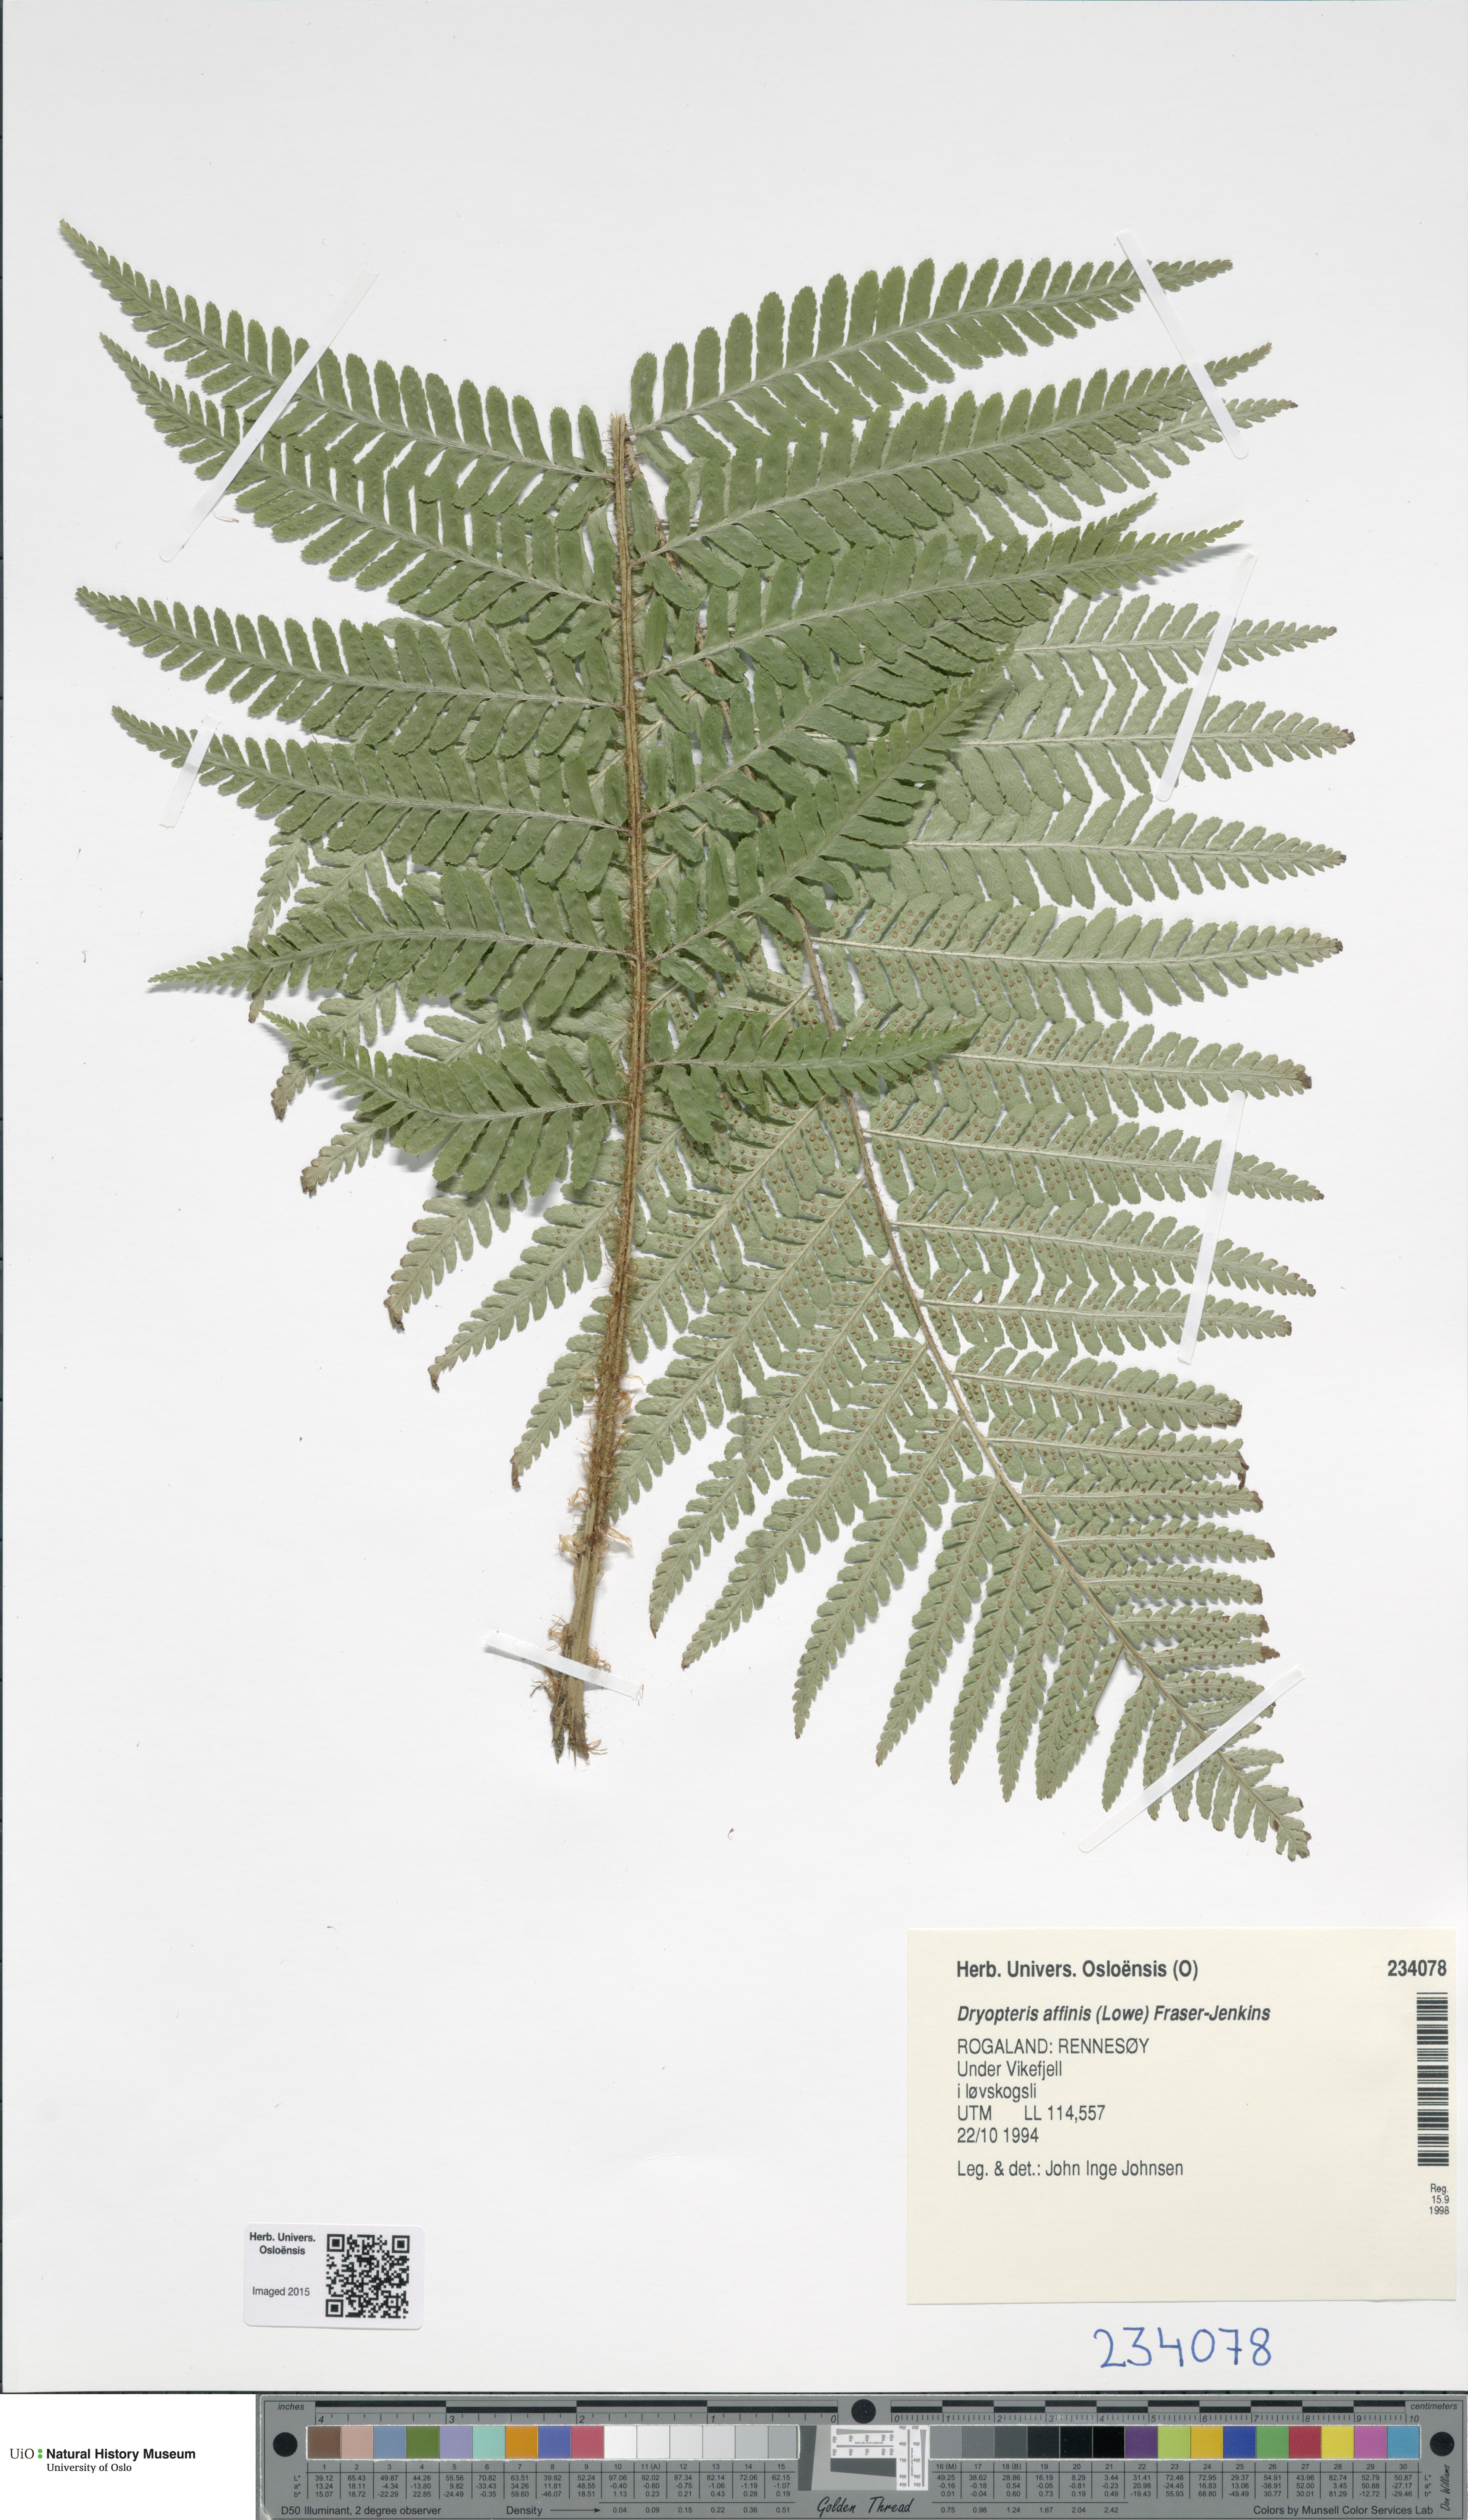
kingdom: Plantae
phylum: Tracheophyta
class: Polypodiopsida
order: Polypodiales
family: Dryopteridaceae
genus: Dryopteris
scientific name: Dryopteris affinis
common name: Scaly male fern
